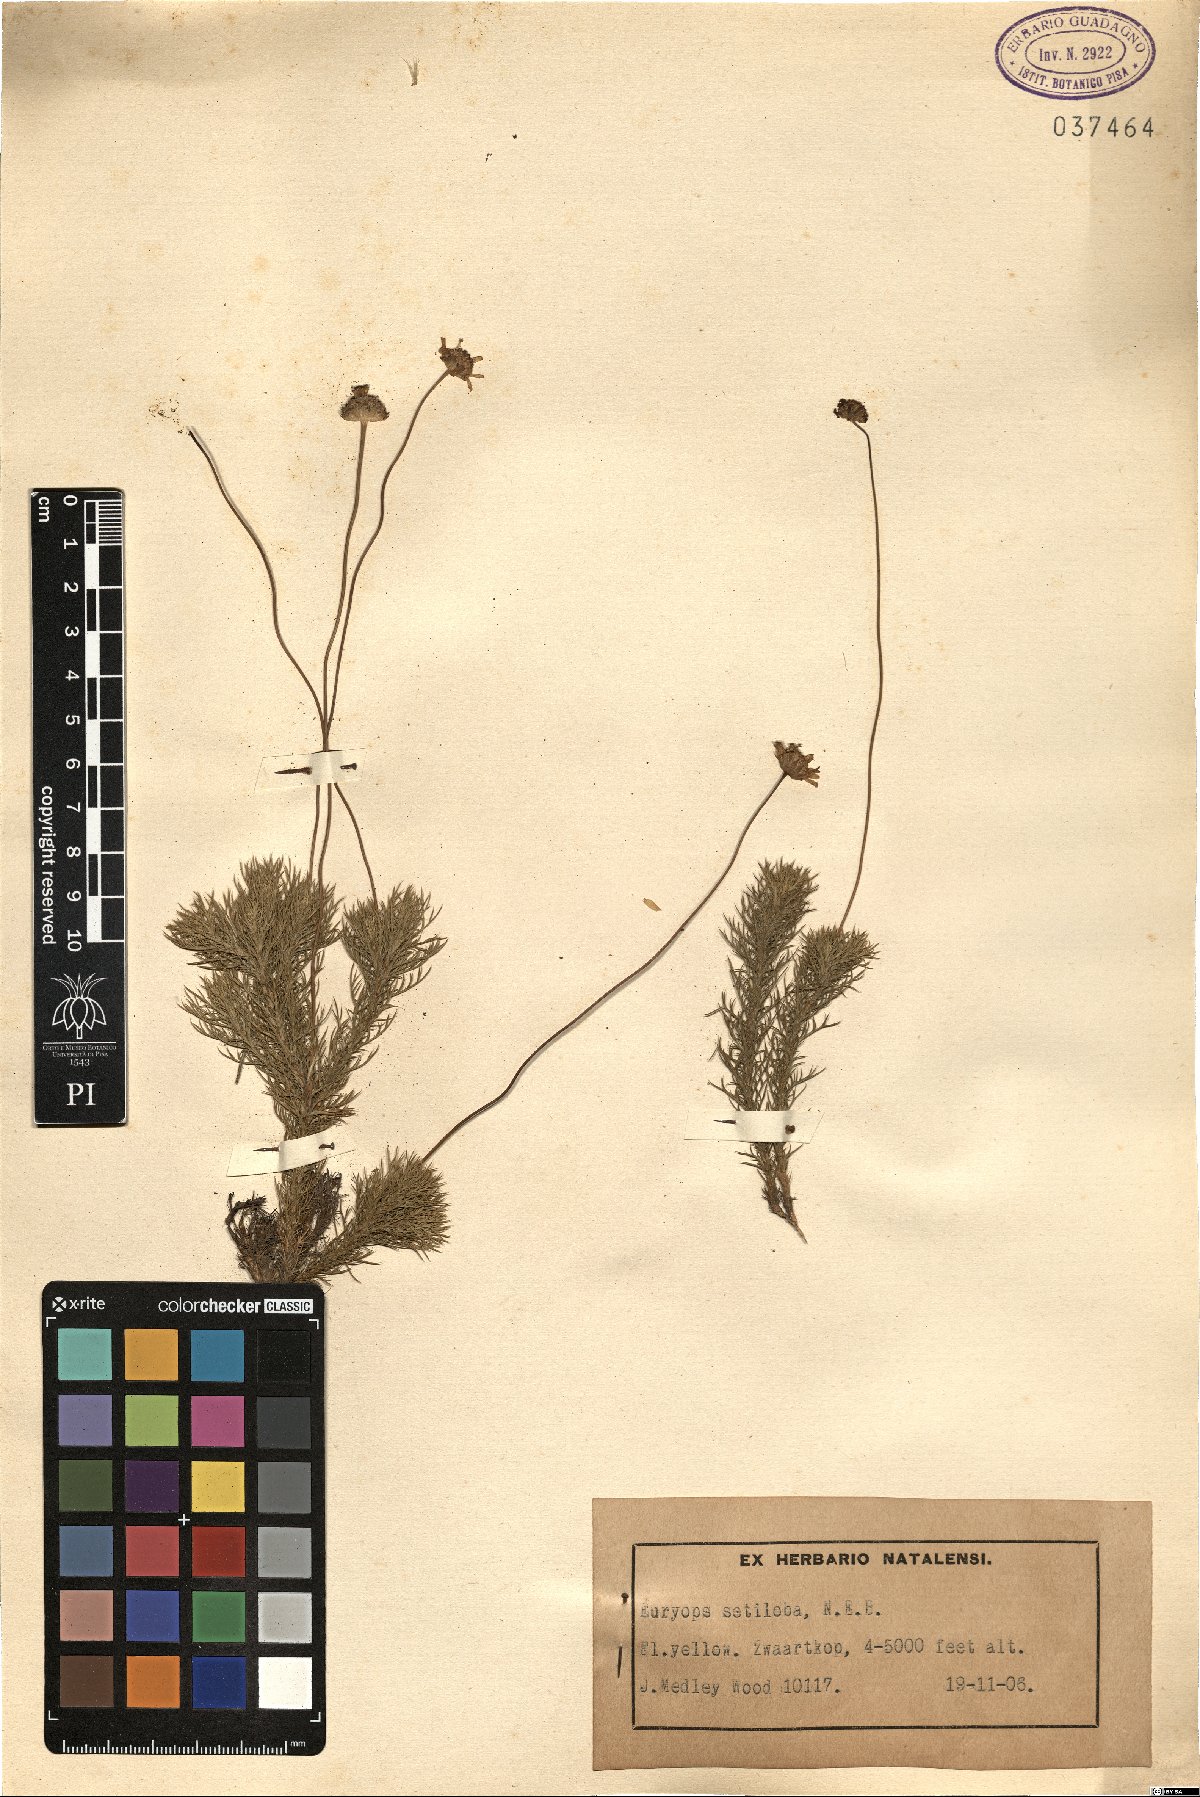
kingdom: Plantae
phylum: Tracheophyta
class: Magnoliopsida
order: Asterales
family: Asteraceae
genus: Euryops
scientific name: Euryops transvaalensis
